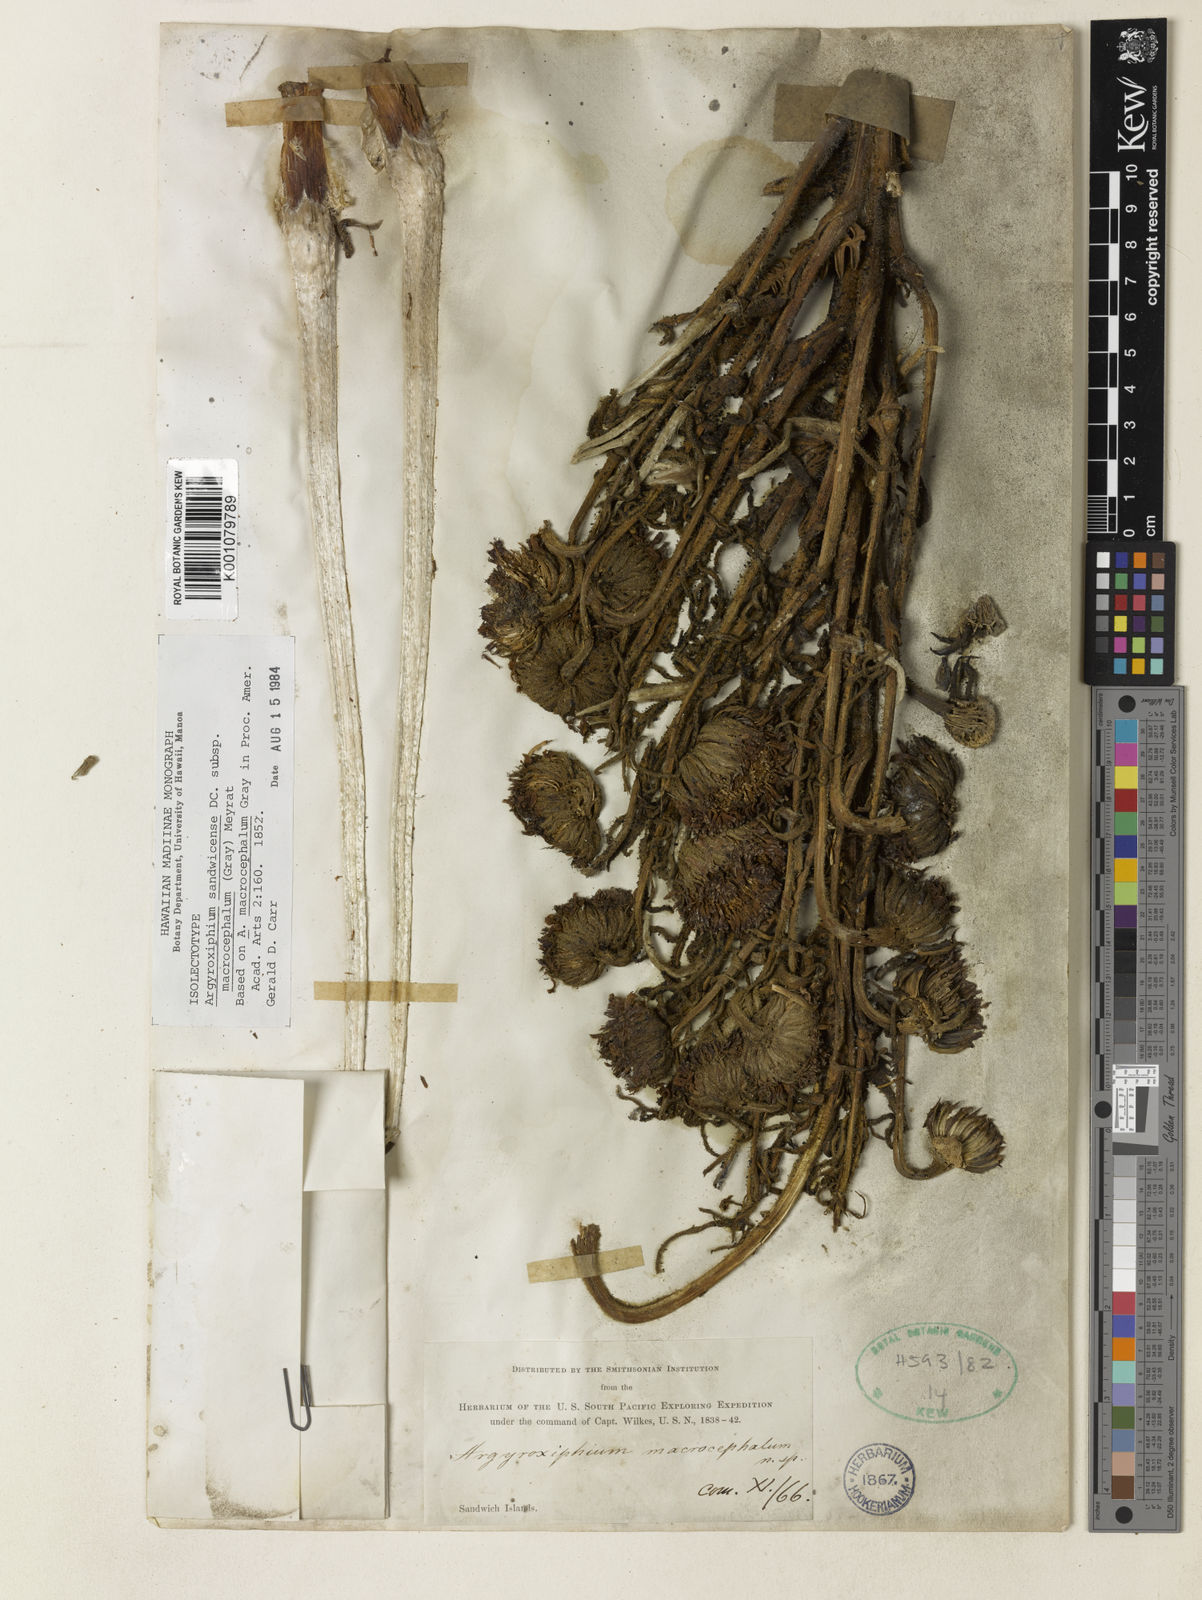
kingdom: Plantae
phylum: Tracheophyta
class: Magnoliopsida
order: Asterales
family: Asteraceae
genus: Argyroxiphium
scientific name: Argyroxiphium sandwicense
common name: Silversword
